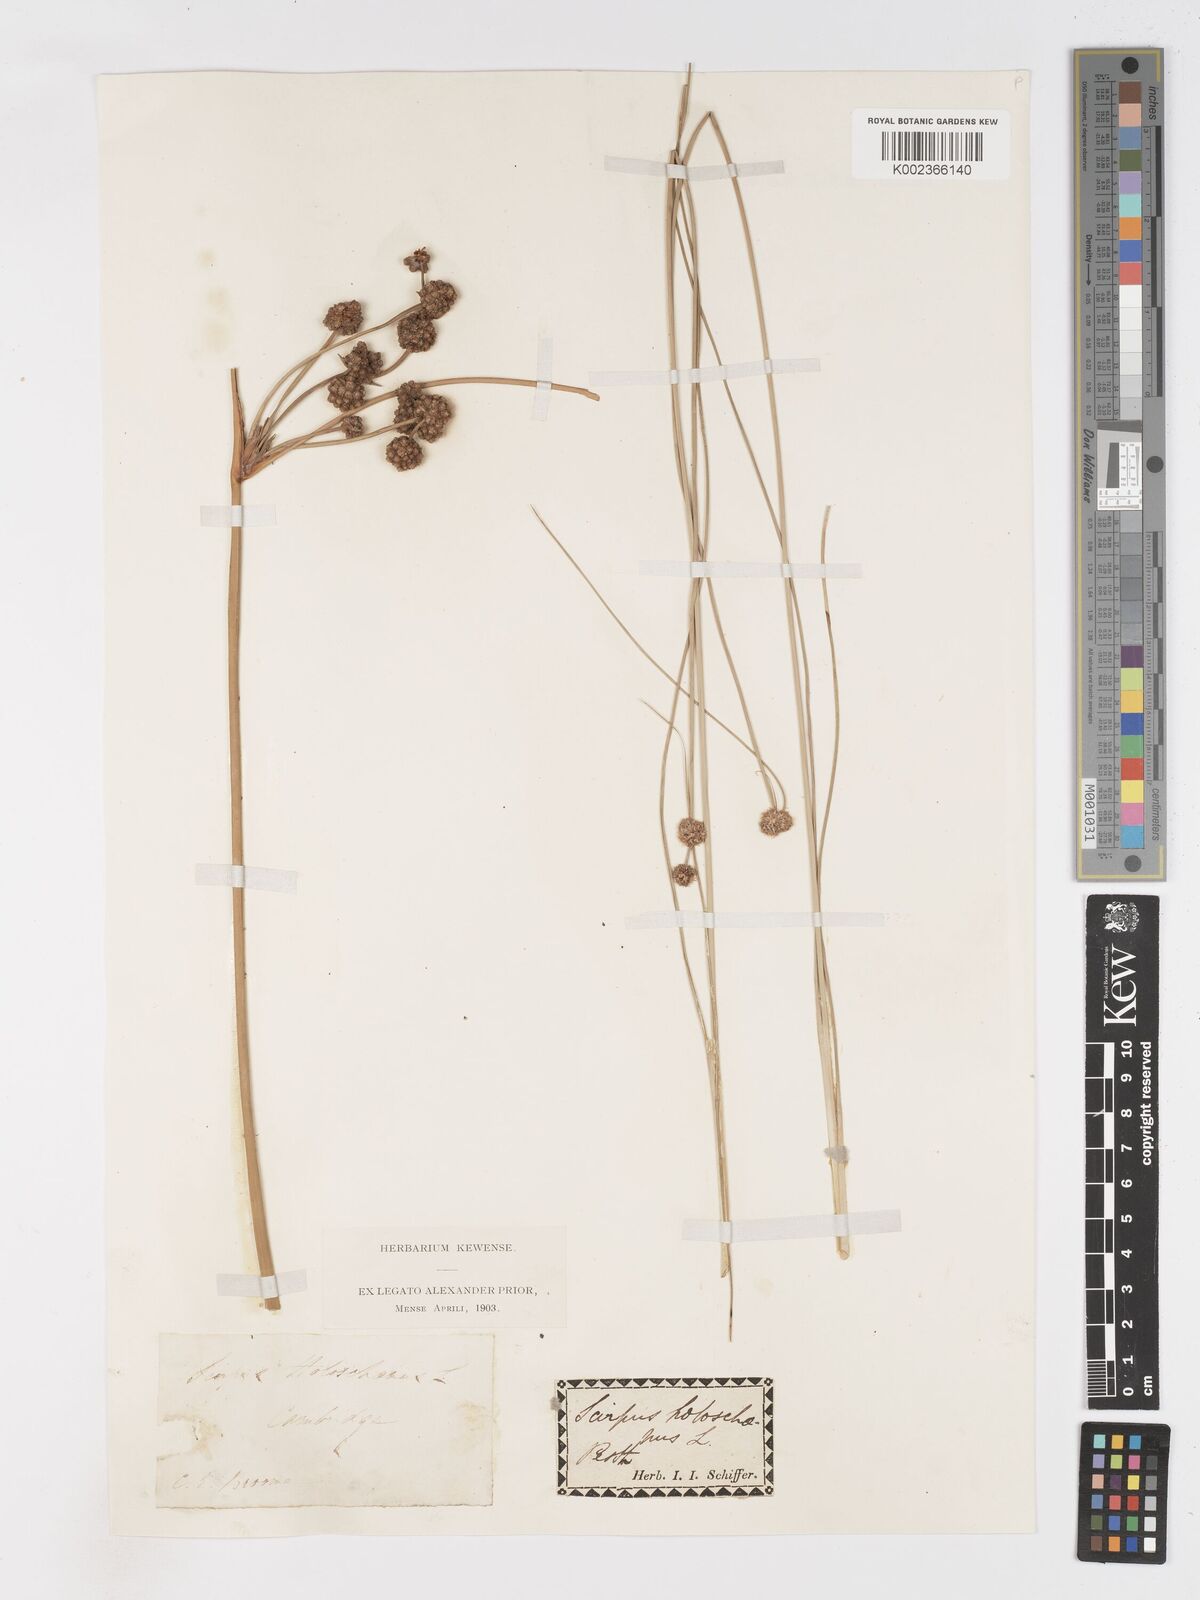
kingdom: Plantae
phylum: Tracheophyta
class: Liliopsida
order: Poales
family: Cyperaceae
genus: Scirpoides
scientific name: Scirpoides holoschoenus
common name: Round-headed club-rush
